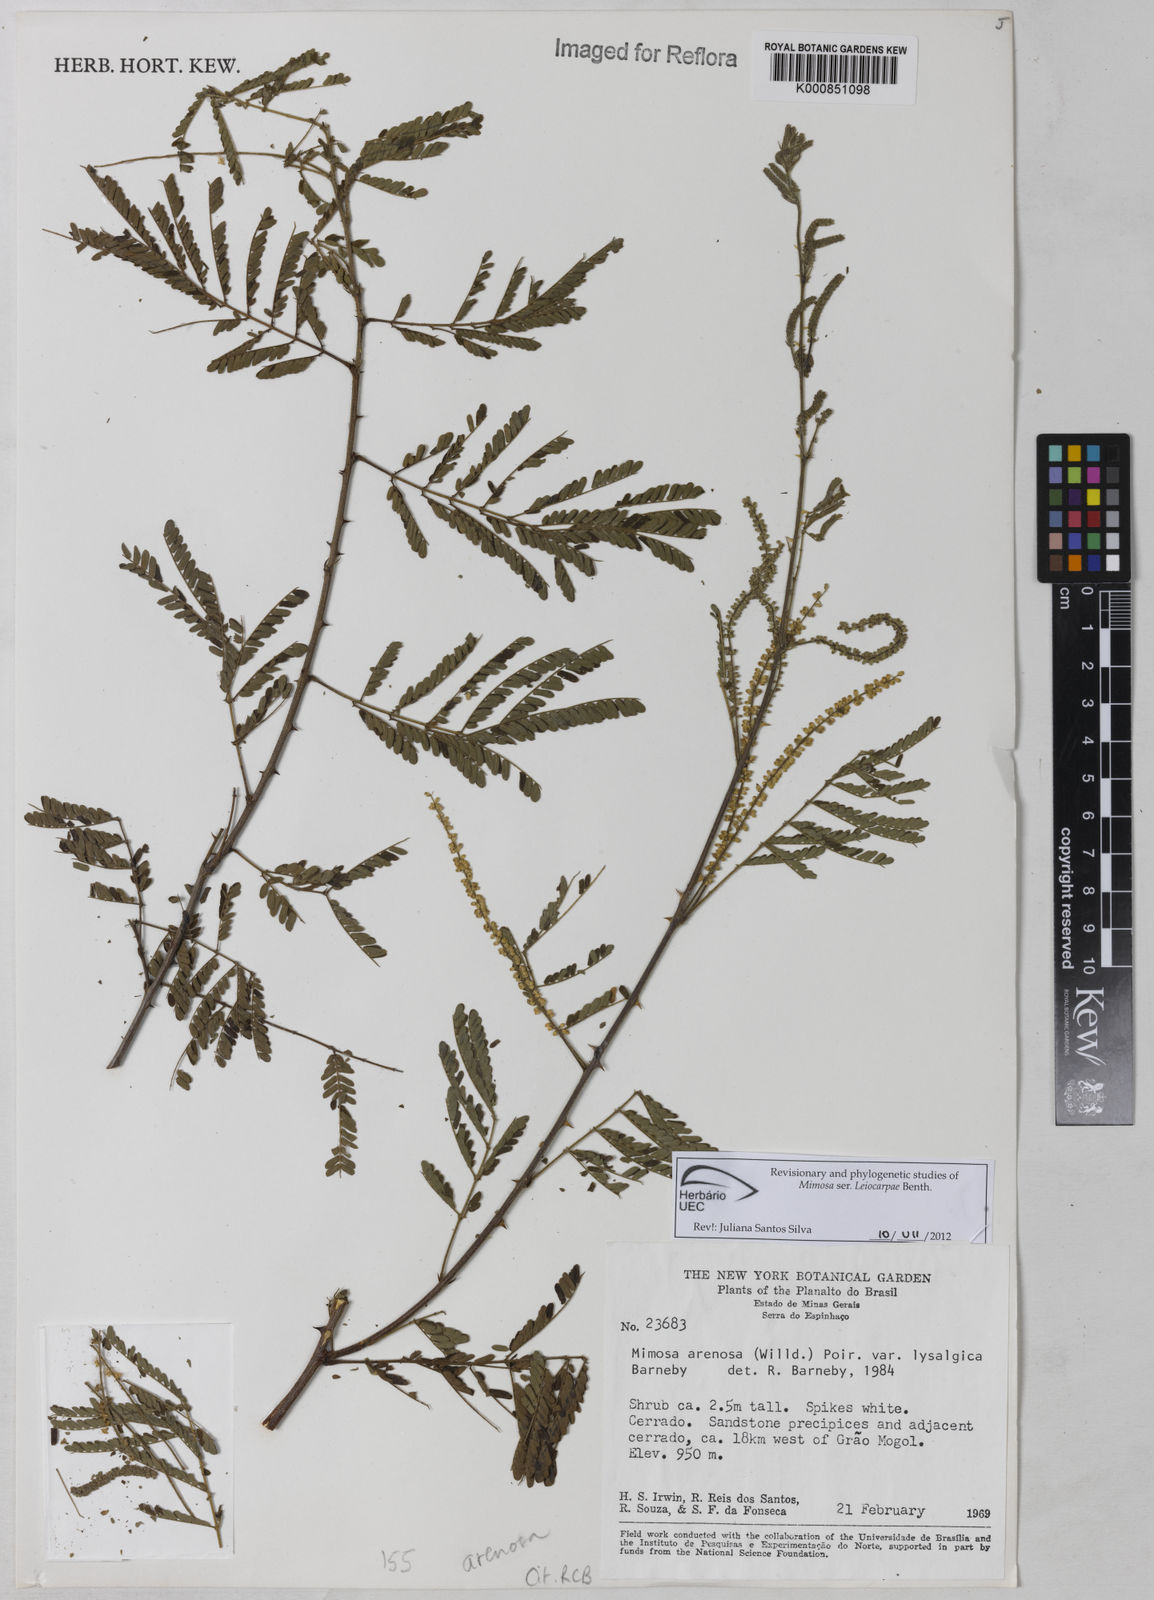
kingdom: Plantae
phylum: Tracheophyta
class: Magnoliopsida
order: Fabales
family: Fabaceae
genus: Mimosa
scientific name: Mimosa arenosa
